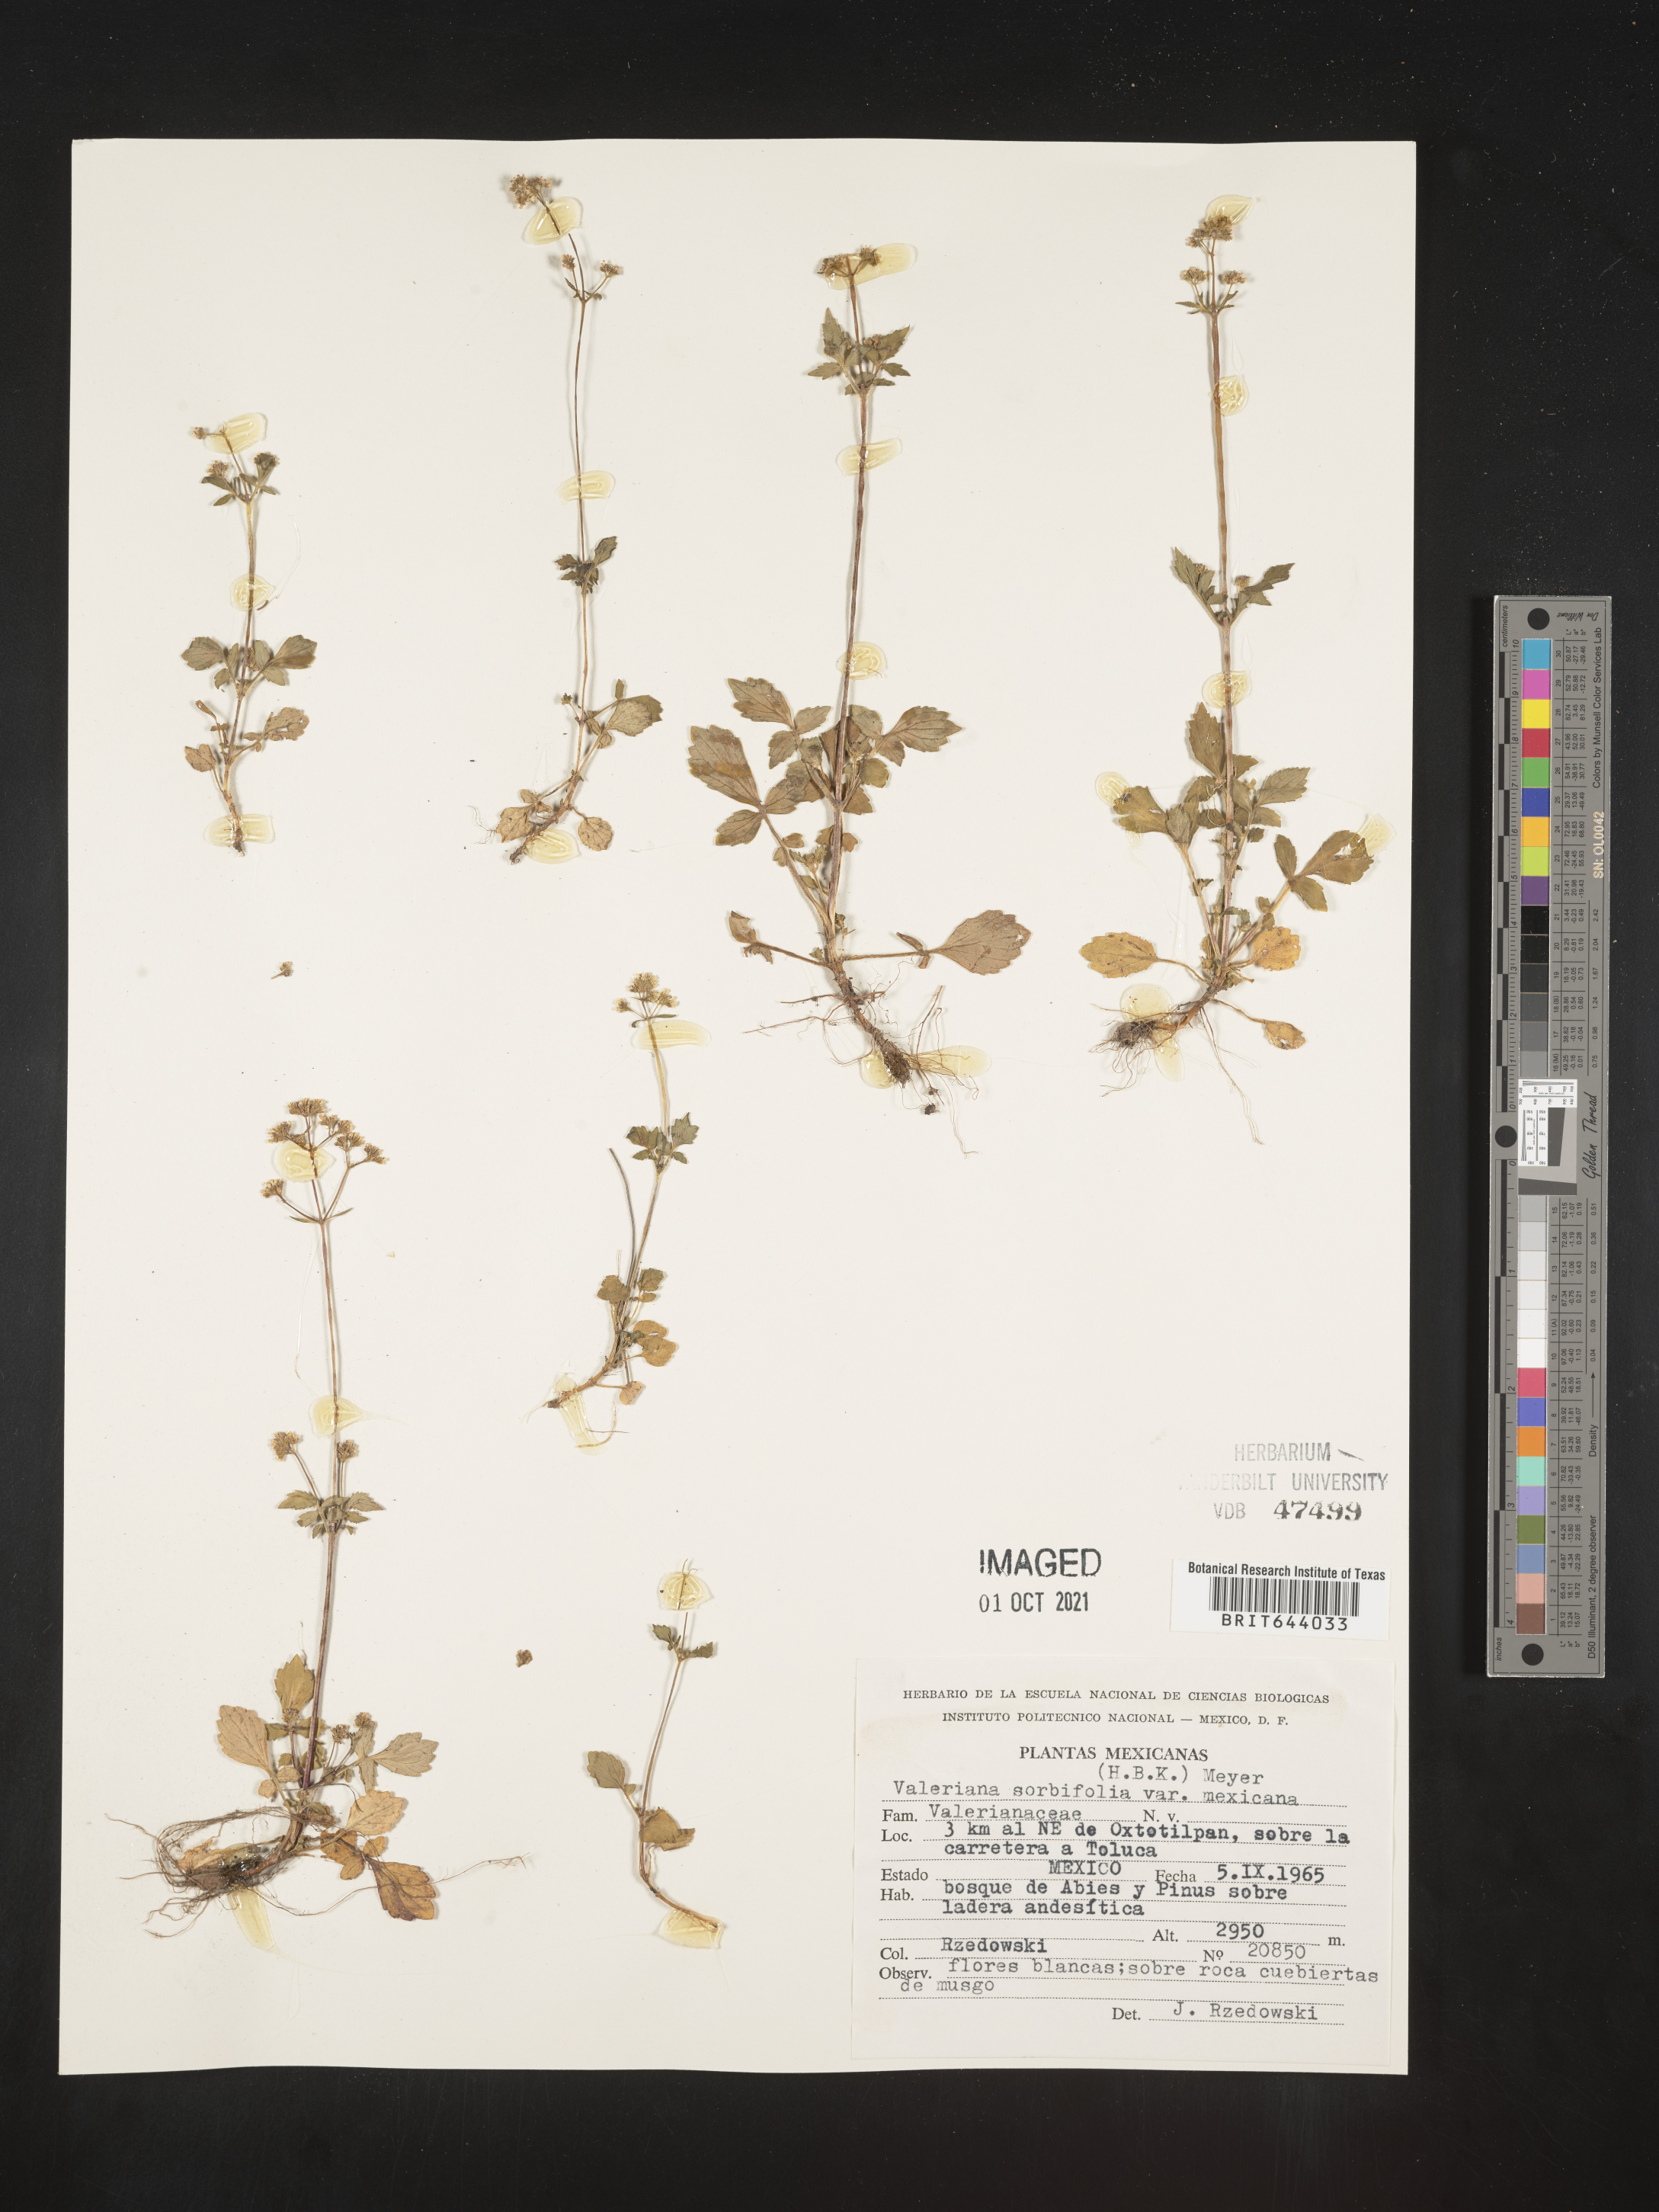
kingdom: Plantae
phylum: Tracheophyta
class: Magnoliopsida
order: Dipsacales
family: Caprifoliaceae
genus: Valeriana
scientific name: Valeriana
